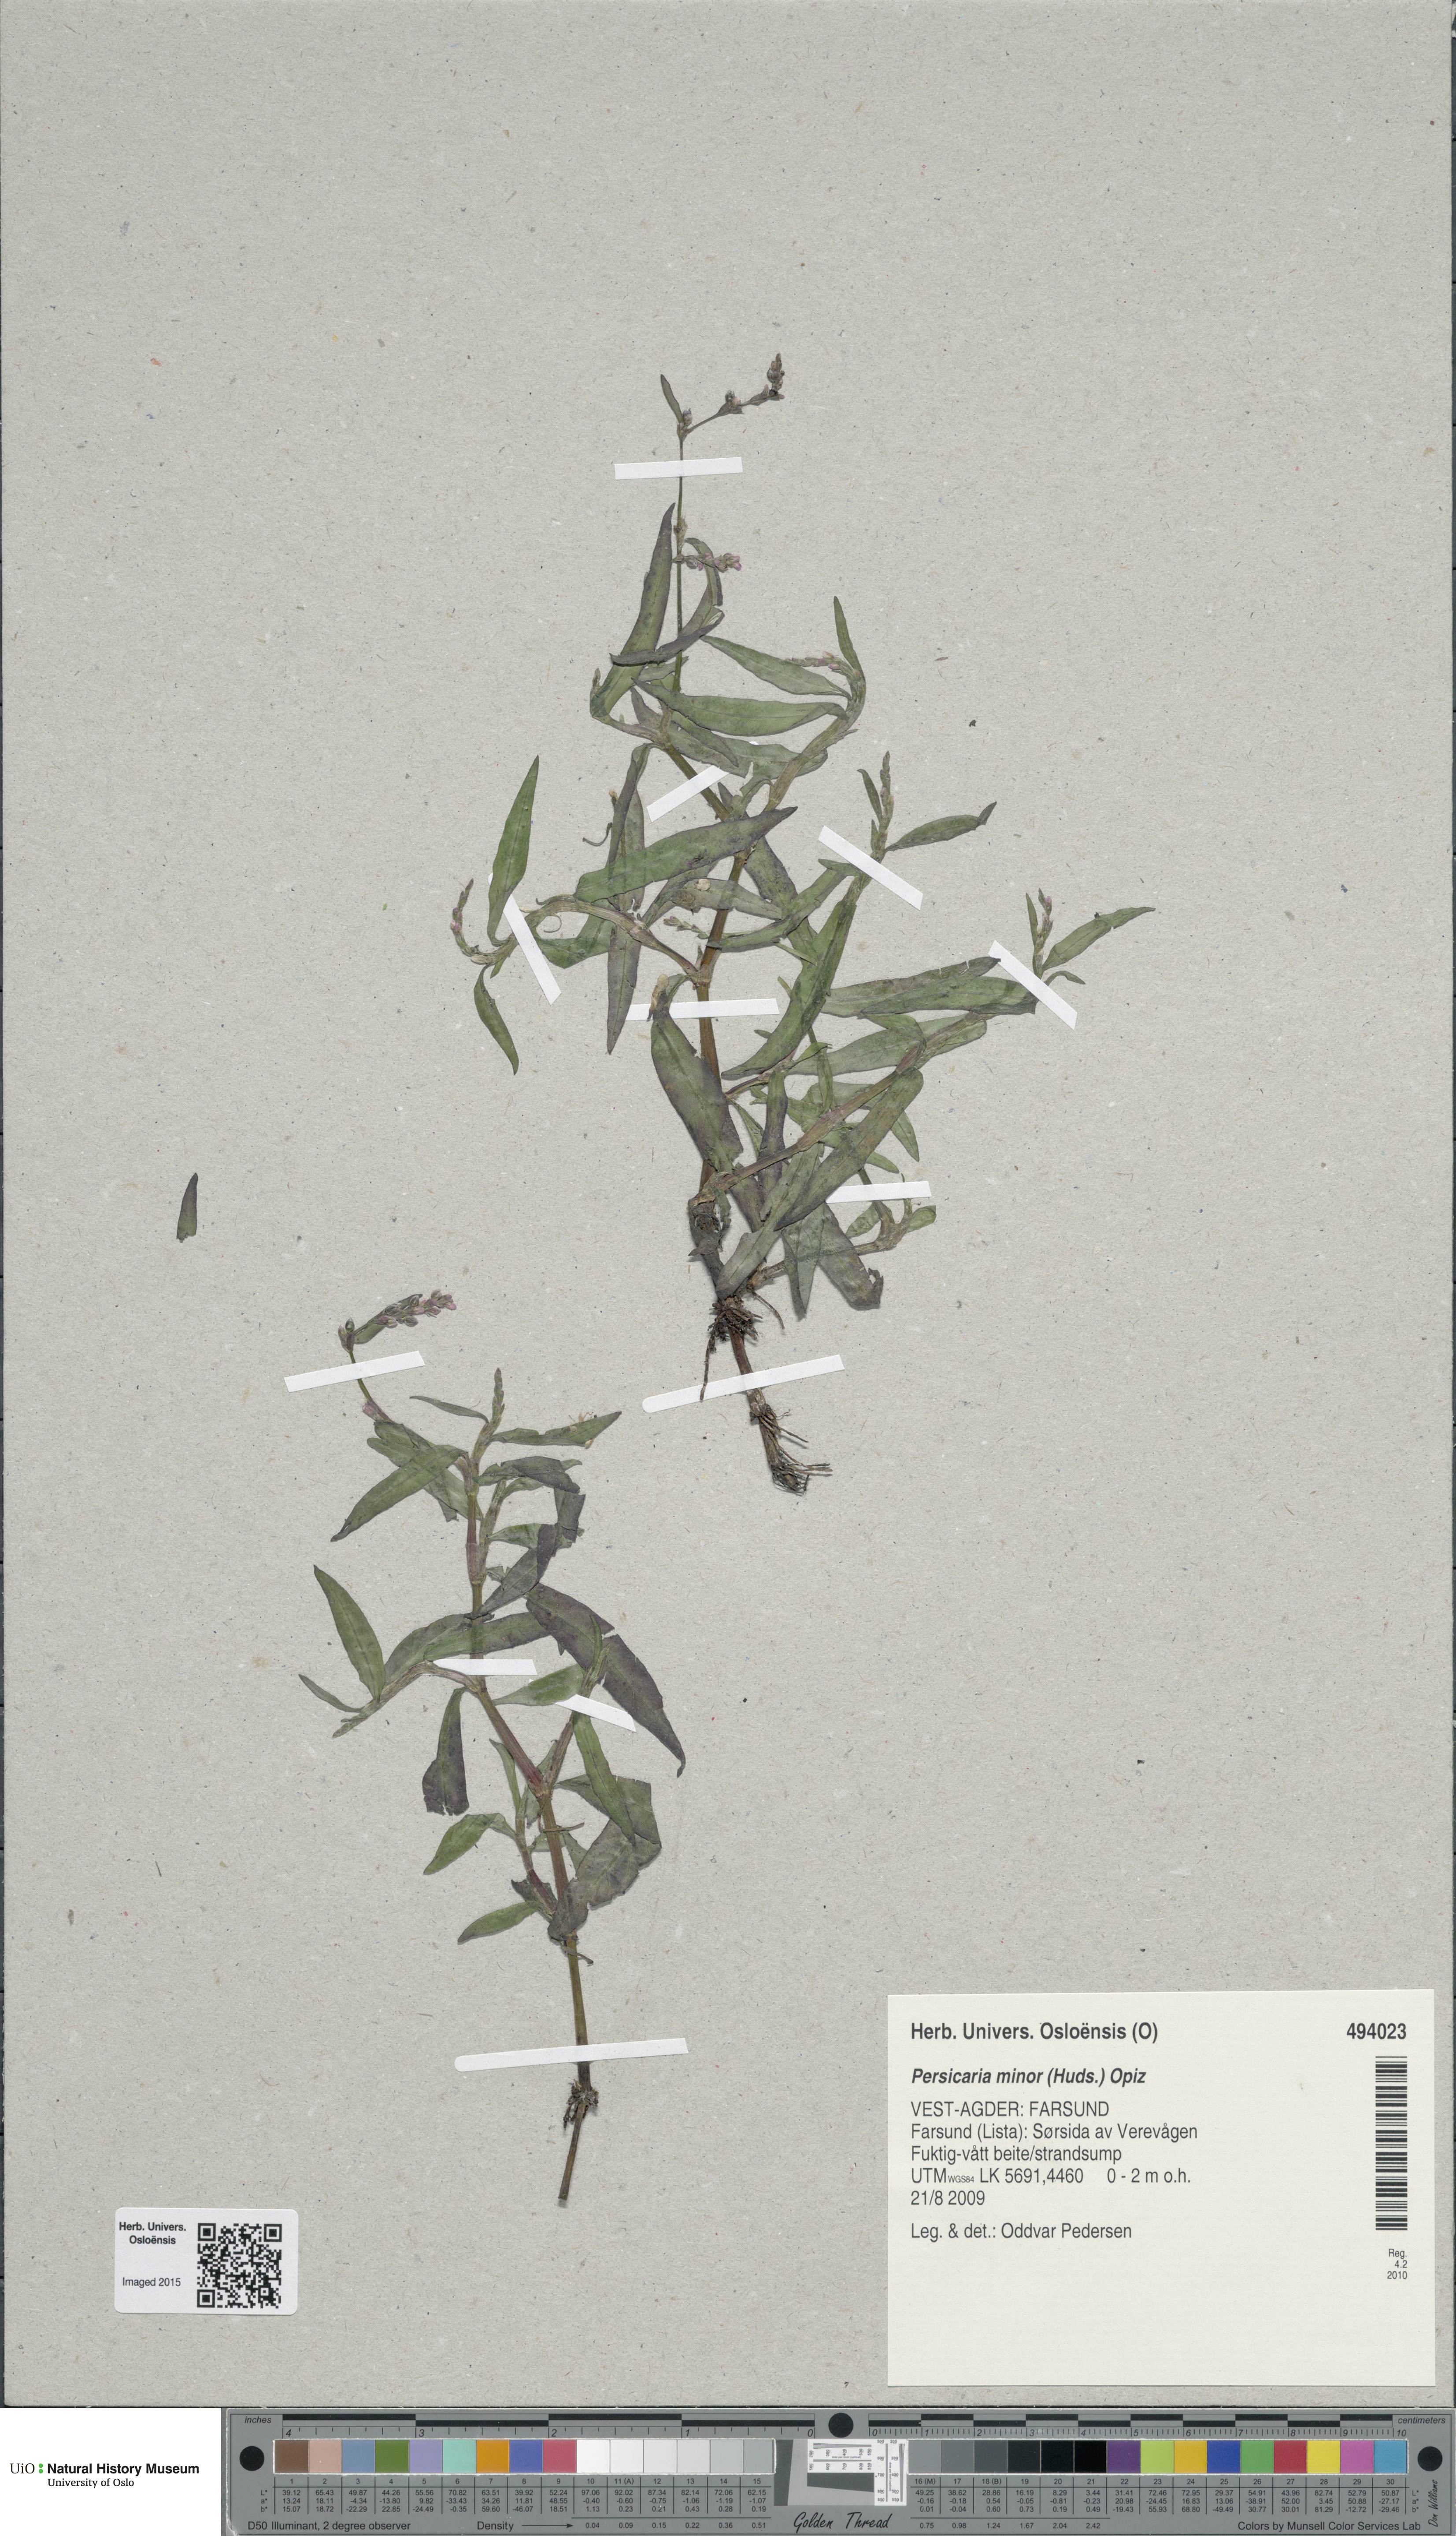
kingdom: Plantae
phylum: Tracheophyta
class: Magnoliopsida
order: Caryophyllales
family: Polygonaceae
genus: Persicaria
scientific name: Persicaria minor
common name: Small water-pepper
